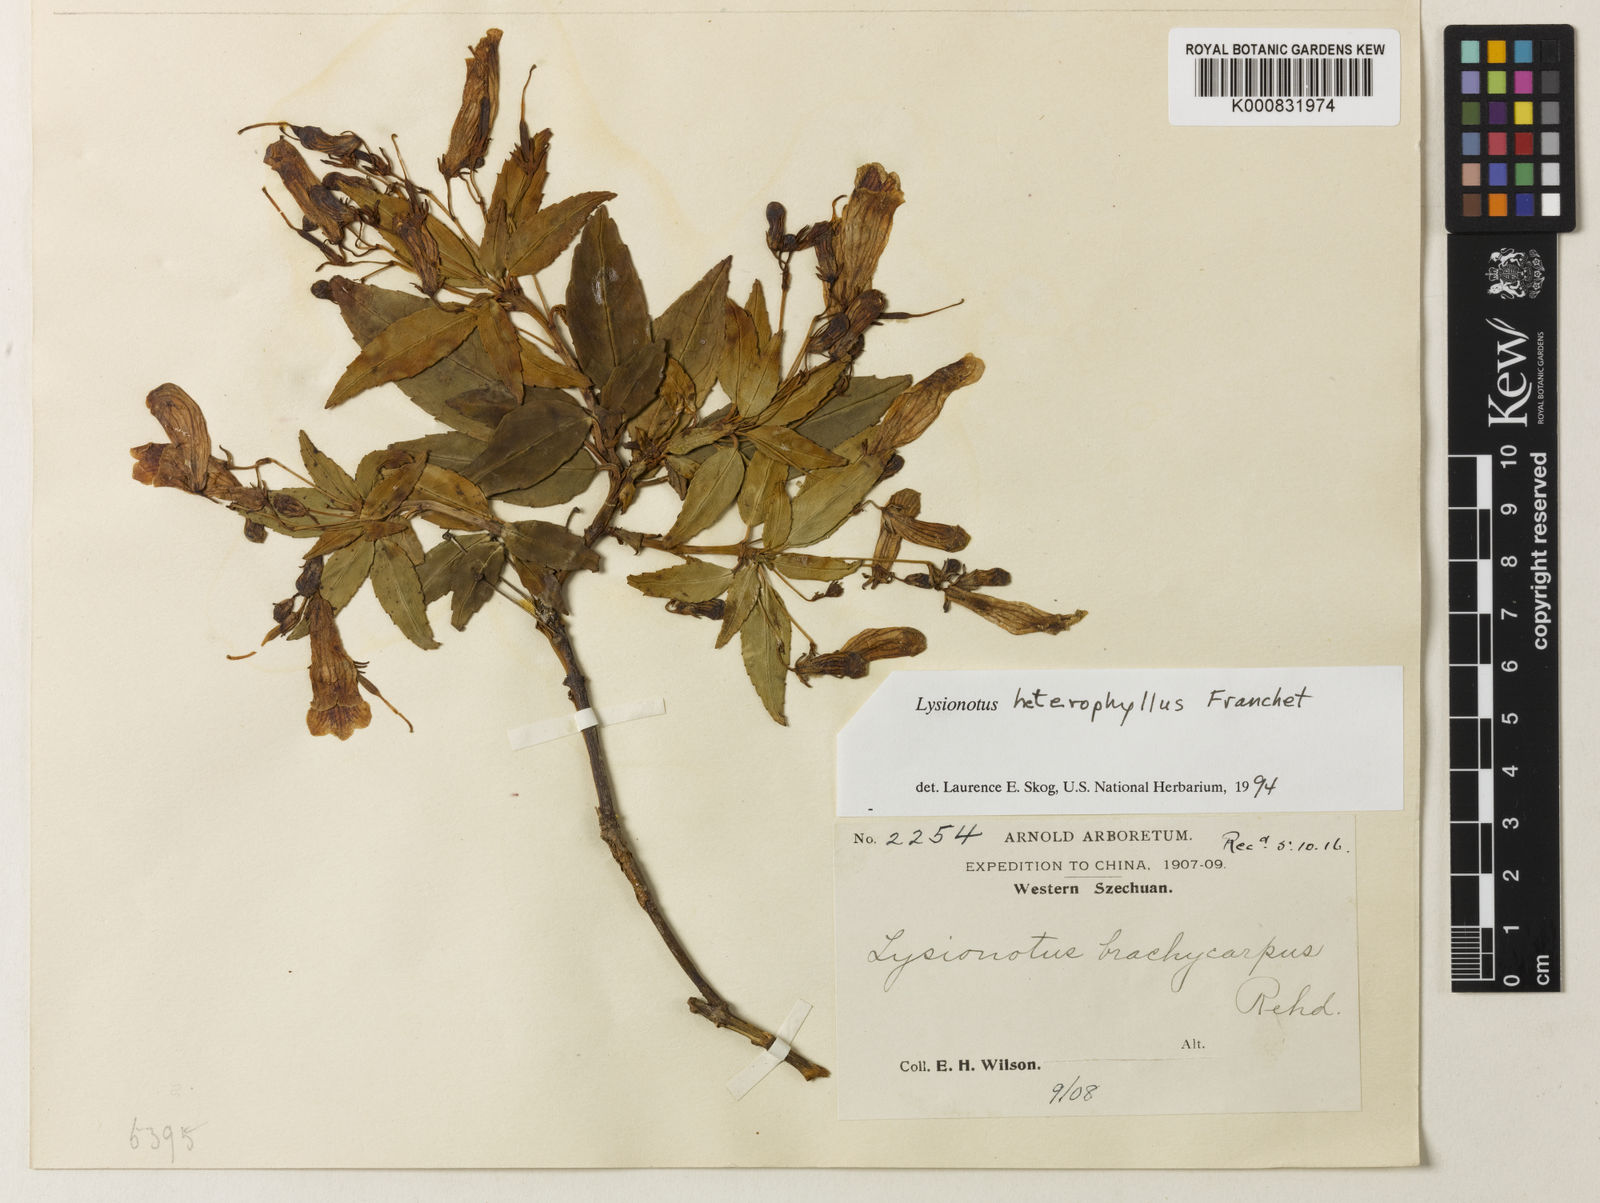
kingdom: Plantae
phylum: Tracheophyta
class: Magnoliopsida
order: Lamiales
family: Gesneriaceae
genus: Lysionotus
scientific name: Lysionotus heterophyllus
